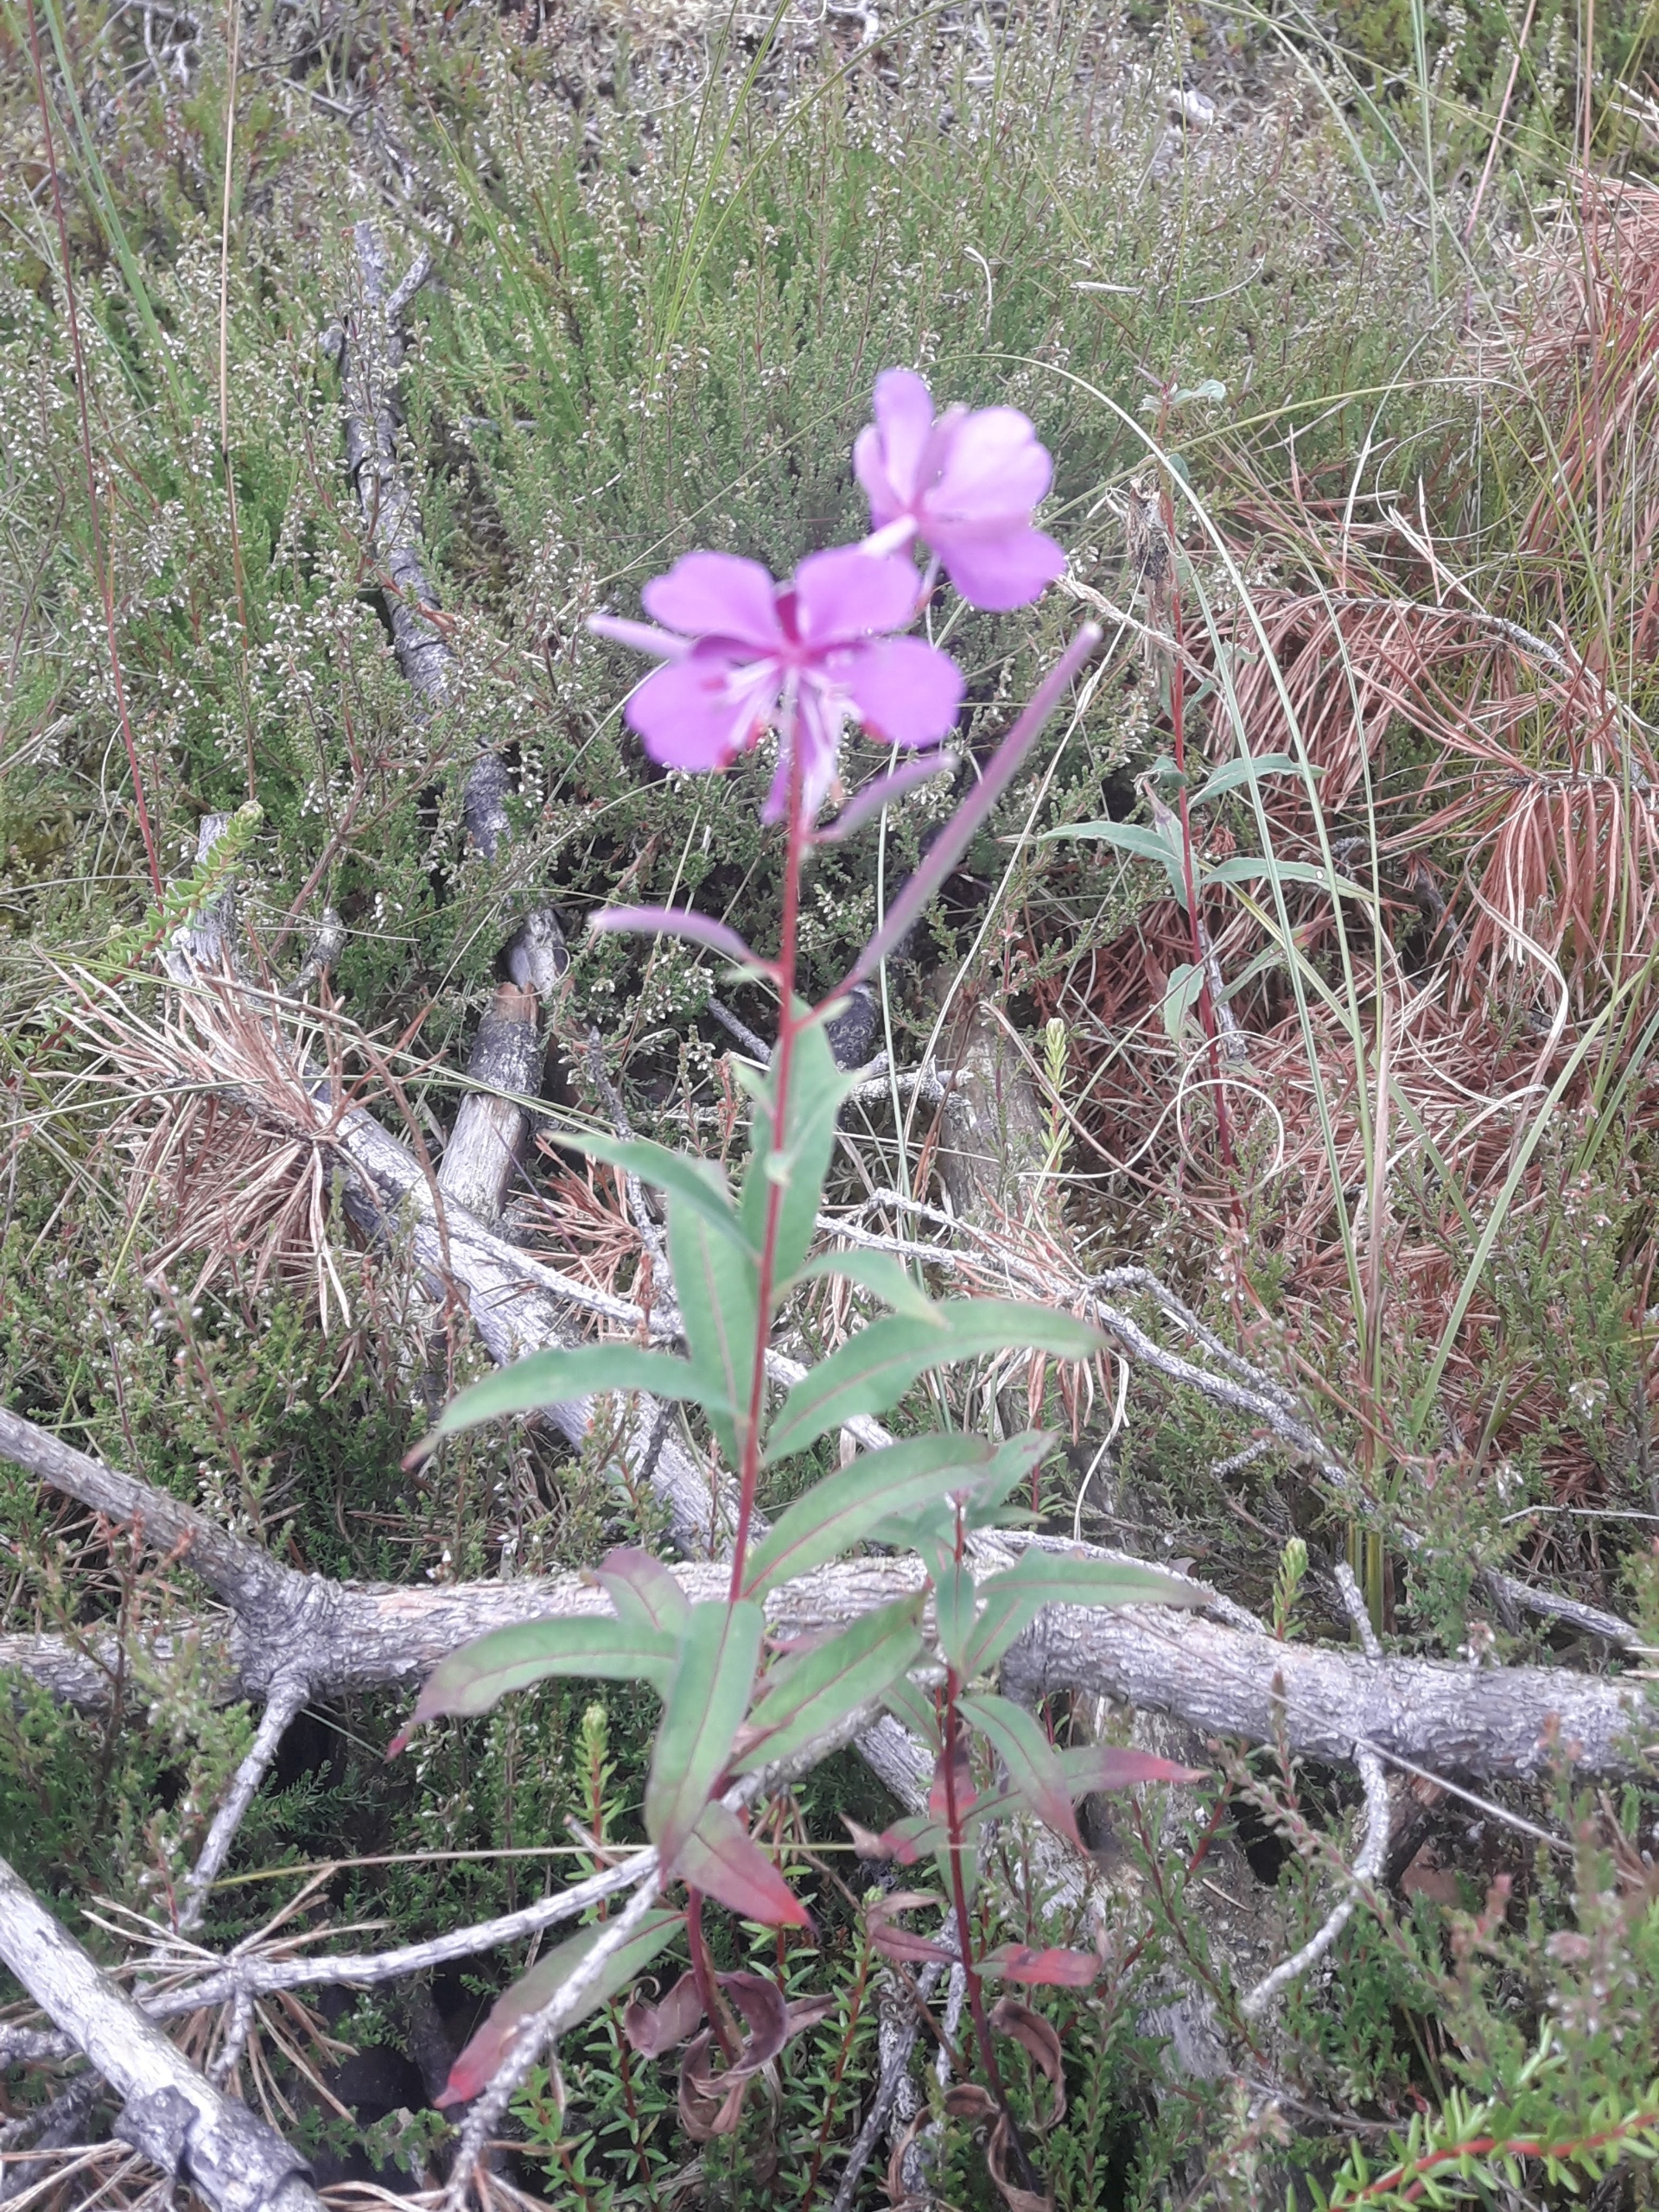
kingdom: Plantae
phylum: Tracheophyta
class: Magnoliopsida
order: Myrtales
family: Onagraceae
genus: Chamaenerion
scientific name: Chamaenerion angustifolium
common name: Gederams
